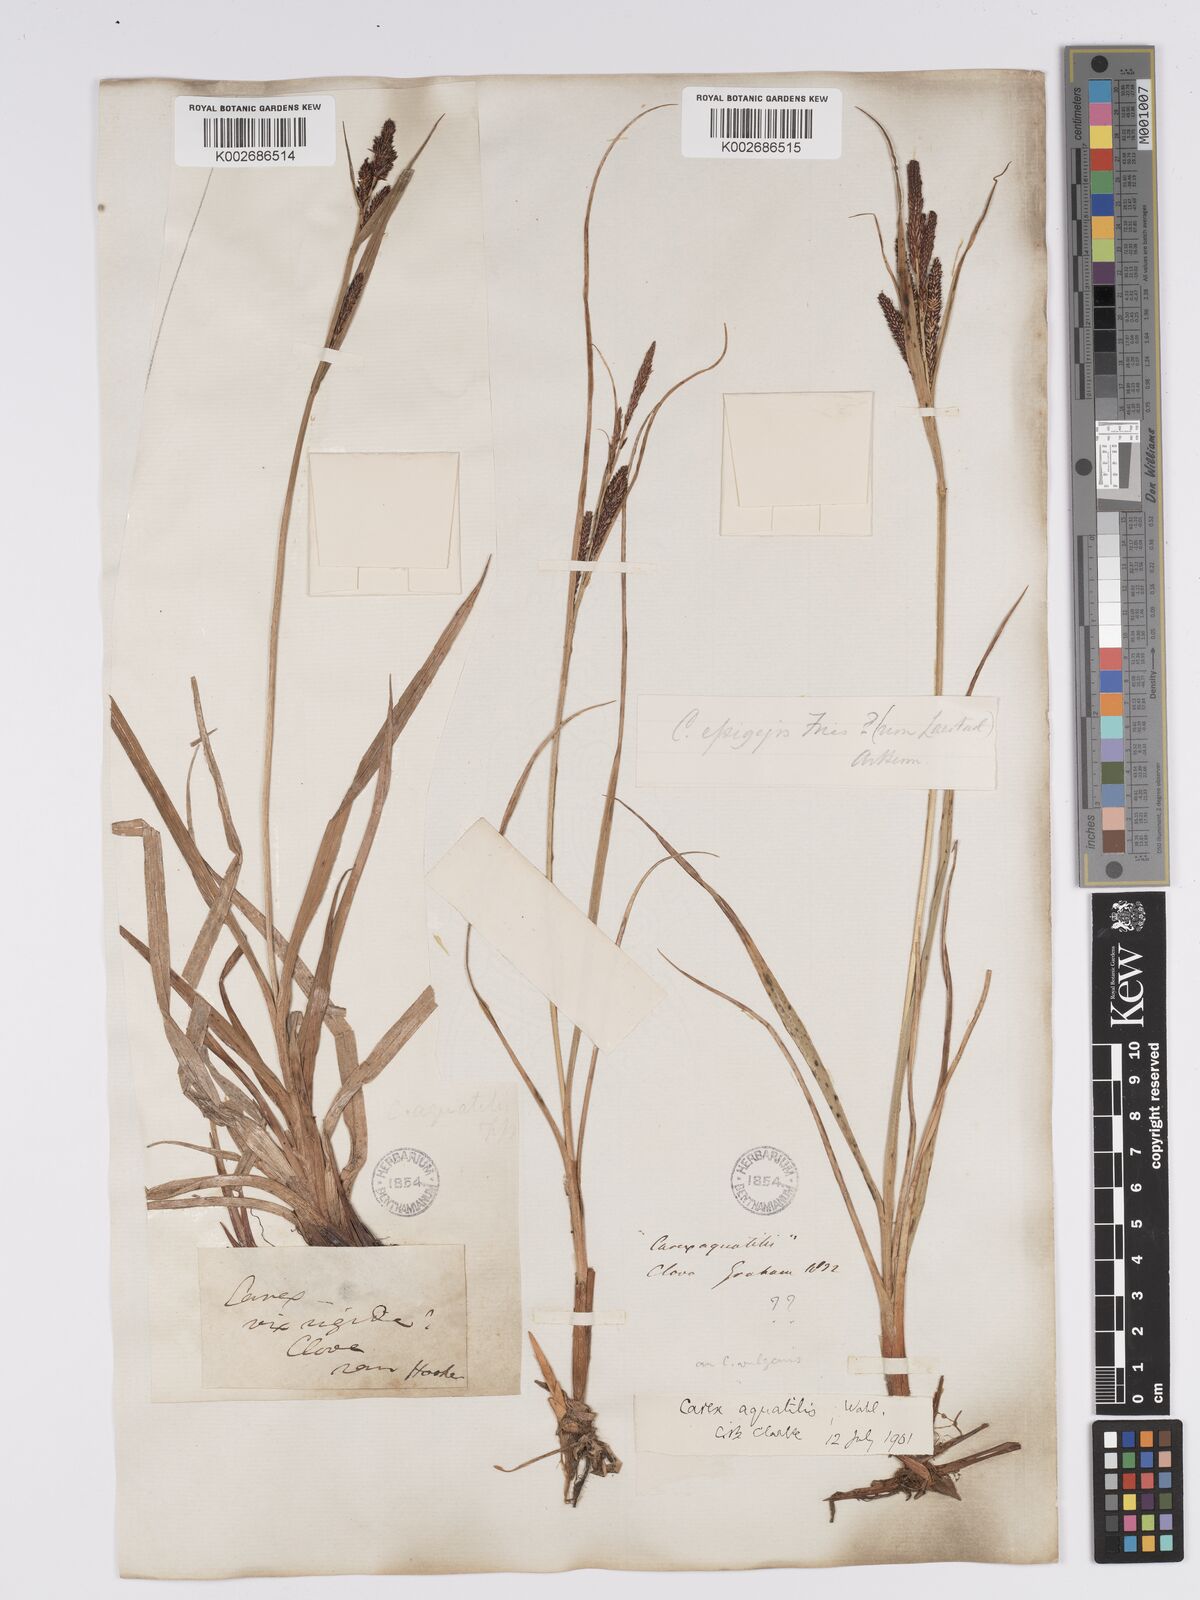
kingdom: Plantae
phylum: Tracheophyta
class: Liliopsida
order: Poales
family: Cyperaceae
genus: Carex
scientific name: Carex aquatilis
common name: Water sedge
